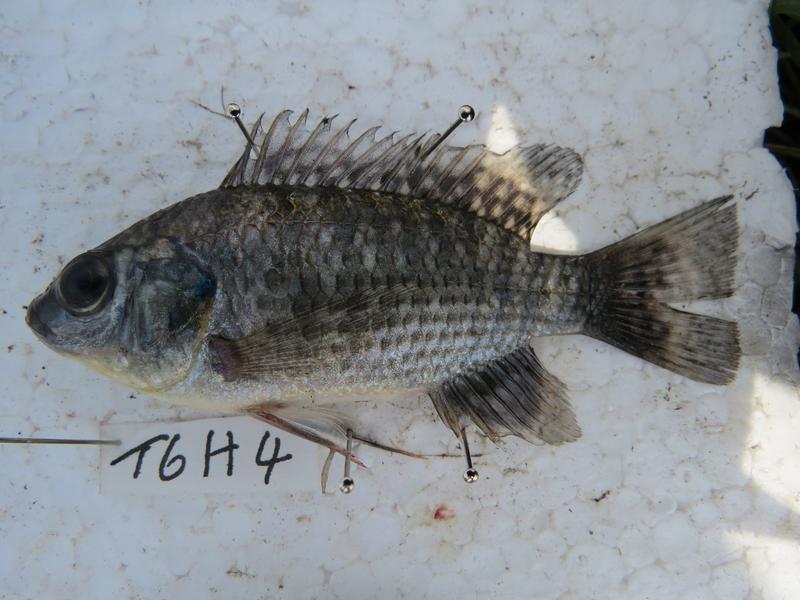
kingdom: Animalia
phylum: Chordata
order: Perciformes
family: Cichlidae
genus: Oreochromis
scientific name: Oreochromis leucostictus
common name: Blue spotted tilapia
